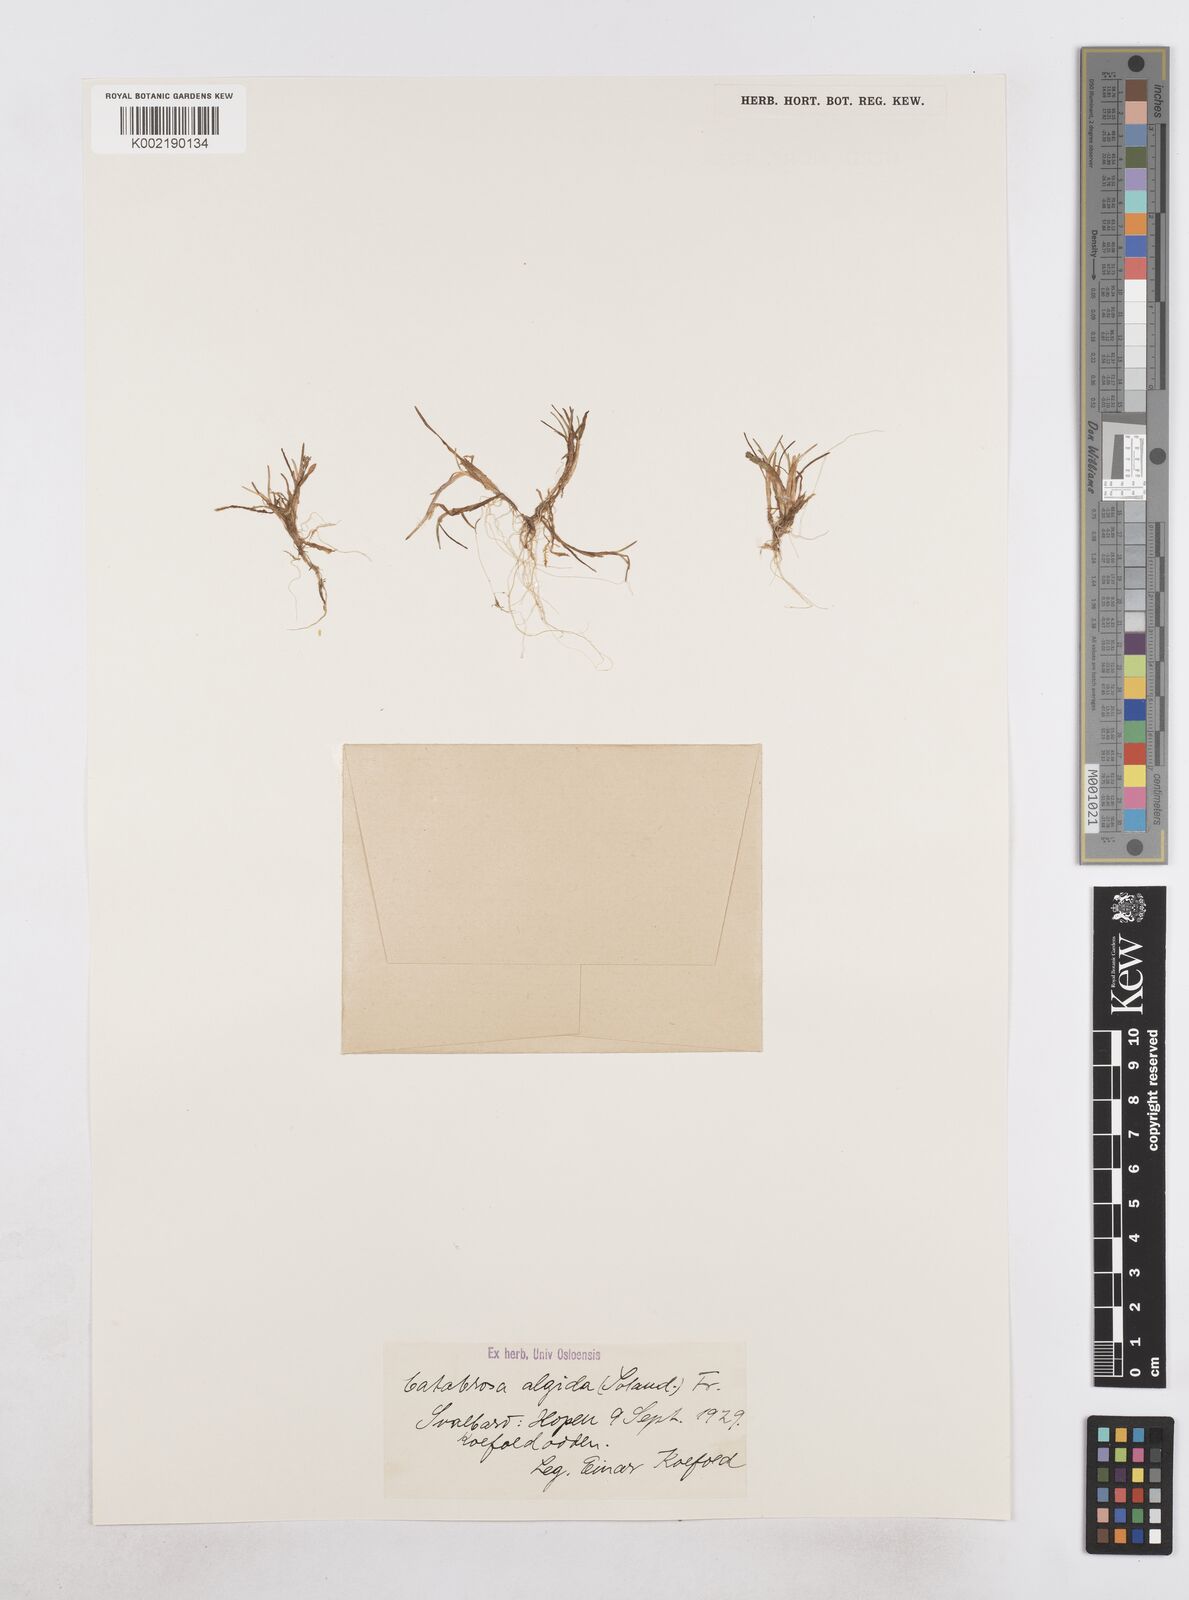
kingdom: Plantae
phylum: Tracheophyta
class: Liliopsida
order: Poales
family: Poaceae
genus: Phippsia
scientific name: Phippsia algida
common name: Ice grass
